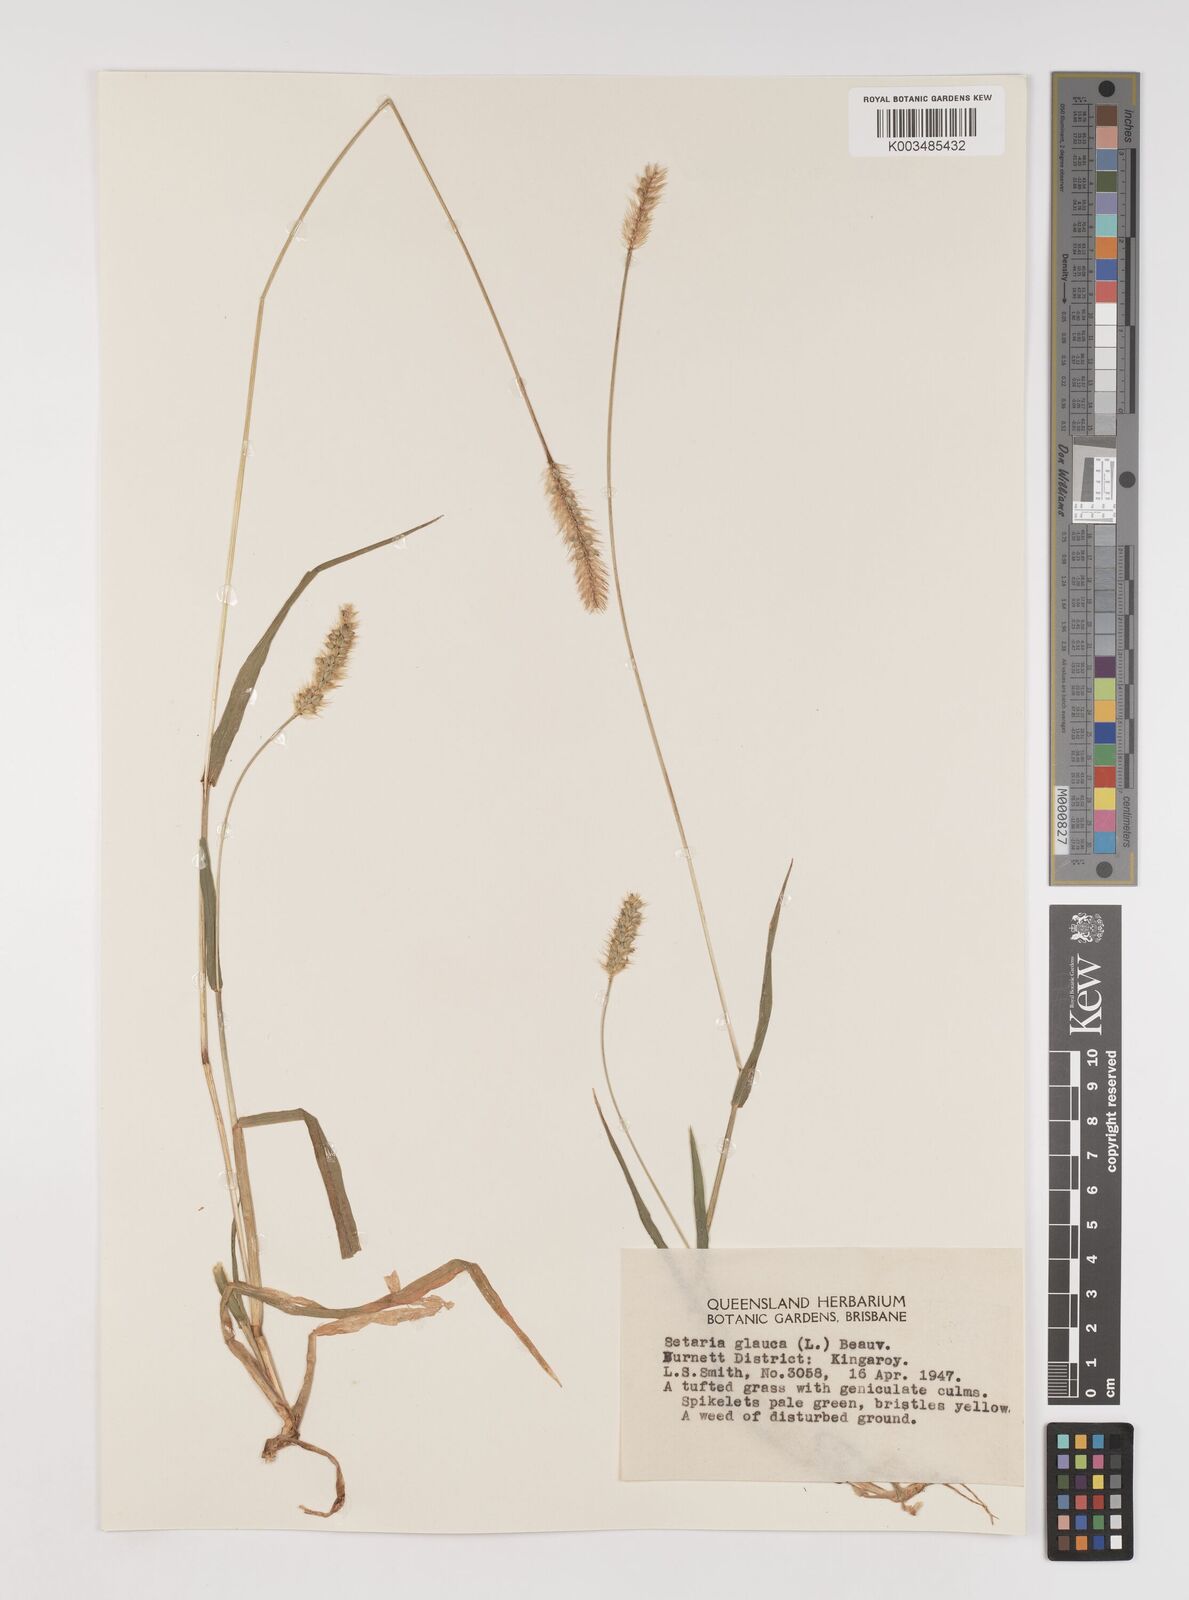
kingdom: Plantae
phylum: Tracheophyta
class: Liliopsida
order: Poales
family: Poaceae
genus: Setaria
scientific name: Setaria pumila
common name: Yellow bristle-grass
